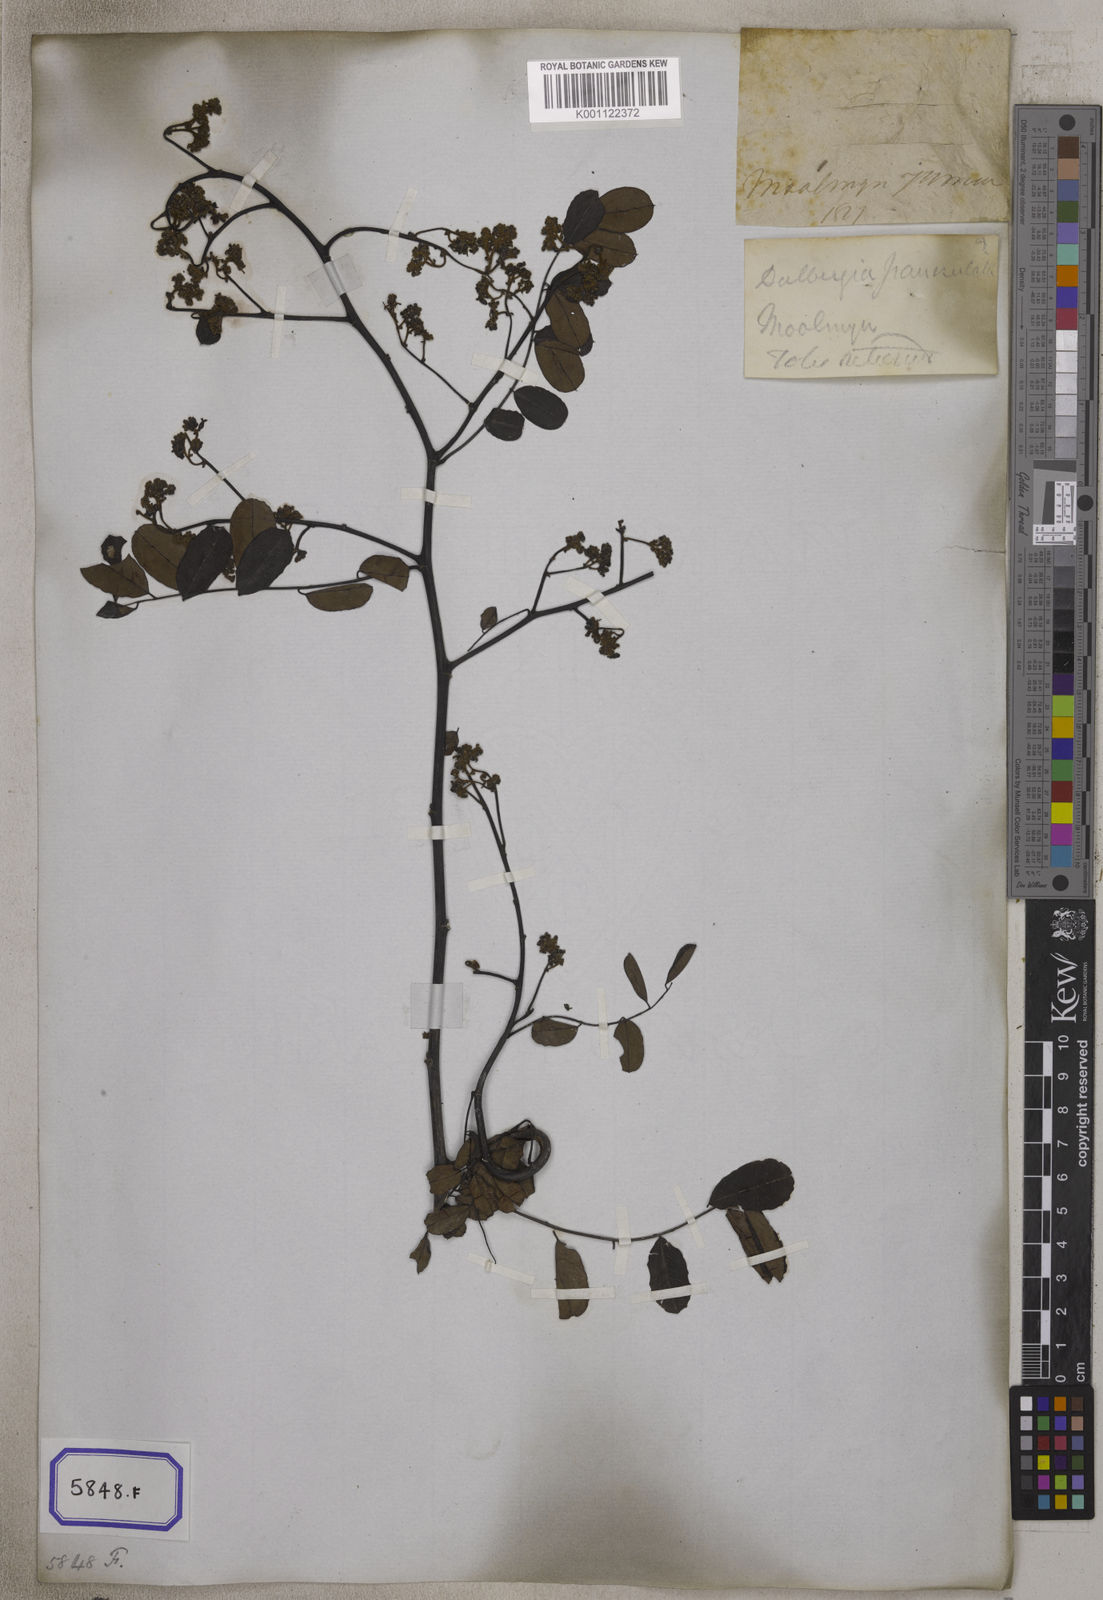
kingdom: Plantae
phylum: Tracheophyta
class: Magnoliopsida
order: Fabales
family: Fabaceae
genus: Dalbergia
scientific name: Dalbergia lanceolaria
